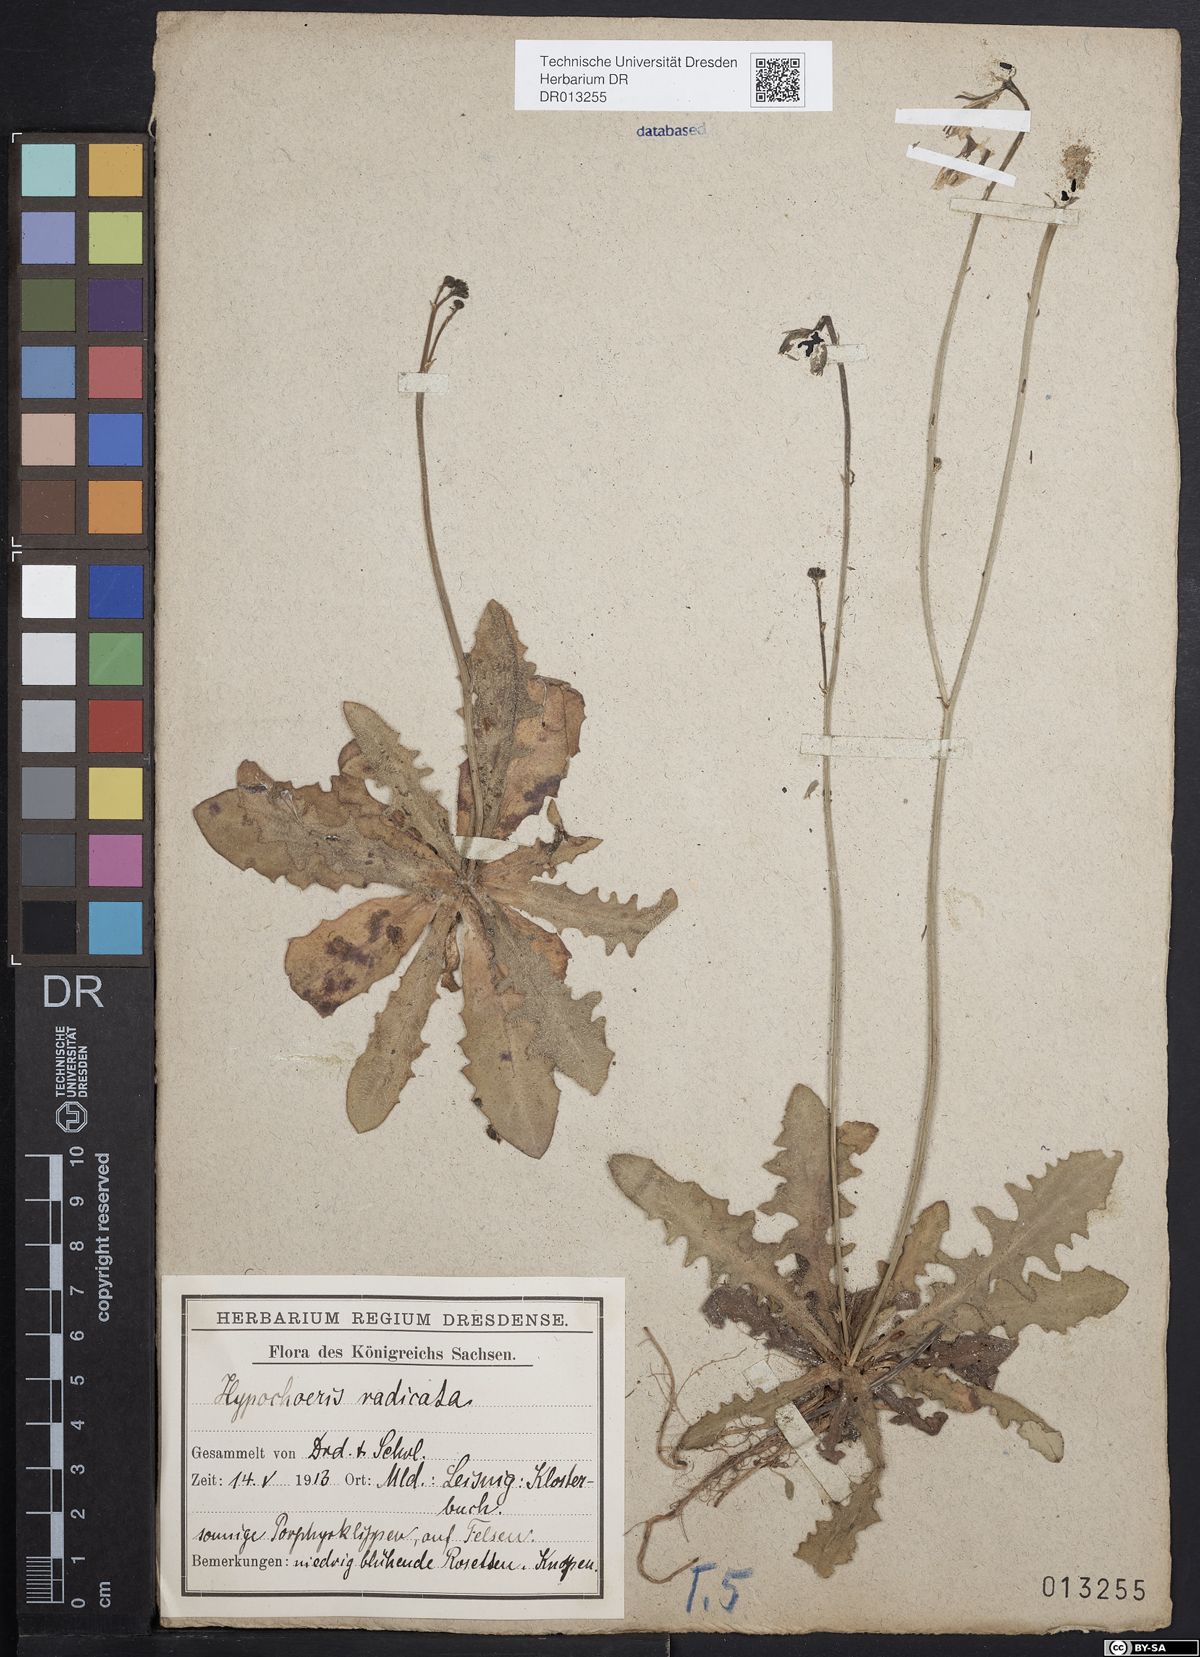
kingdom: Plantae
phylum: Tracheophyta
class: Magnoliopsida
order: Asterales
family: Asteraceae
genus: Hypochaeris
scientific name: Hypochaeris radicata
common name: Flatweed
